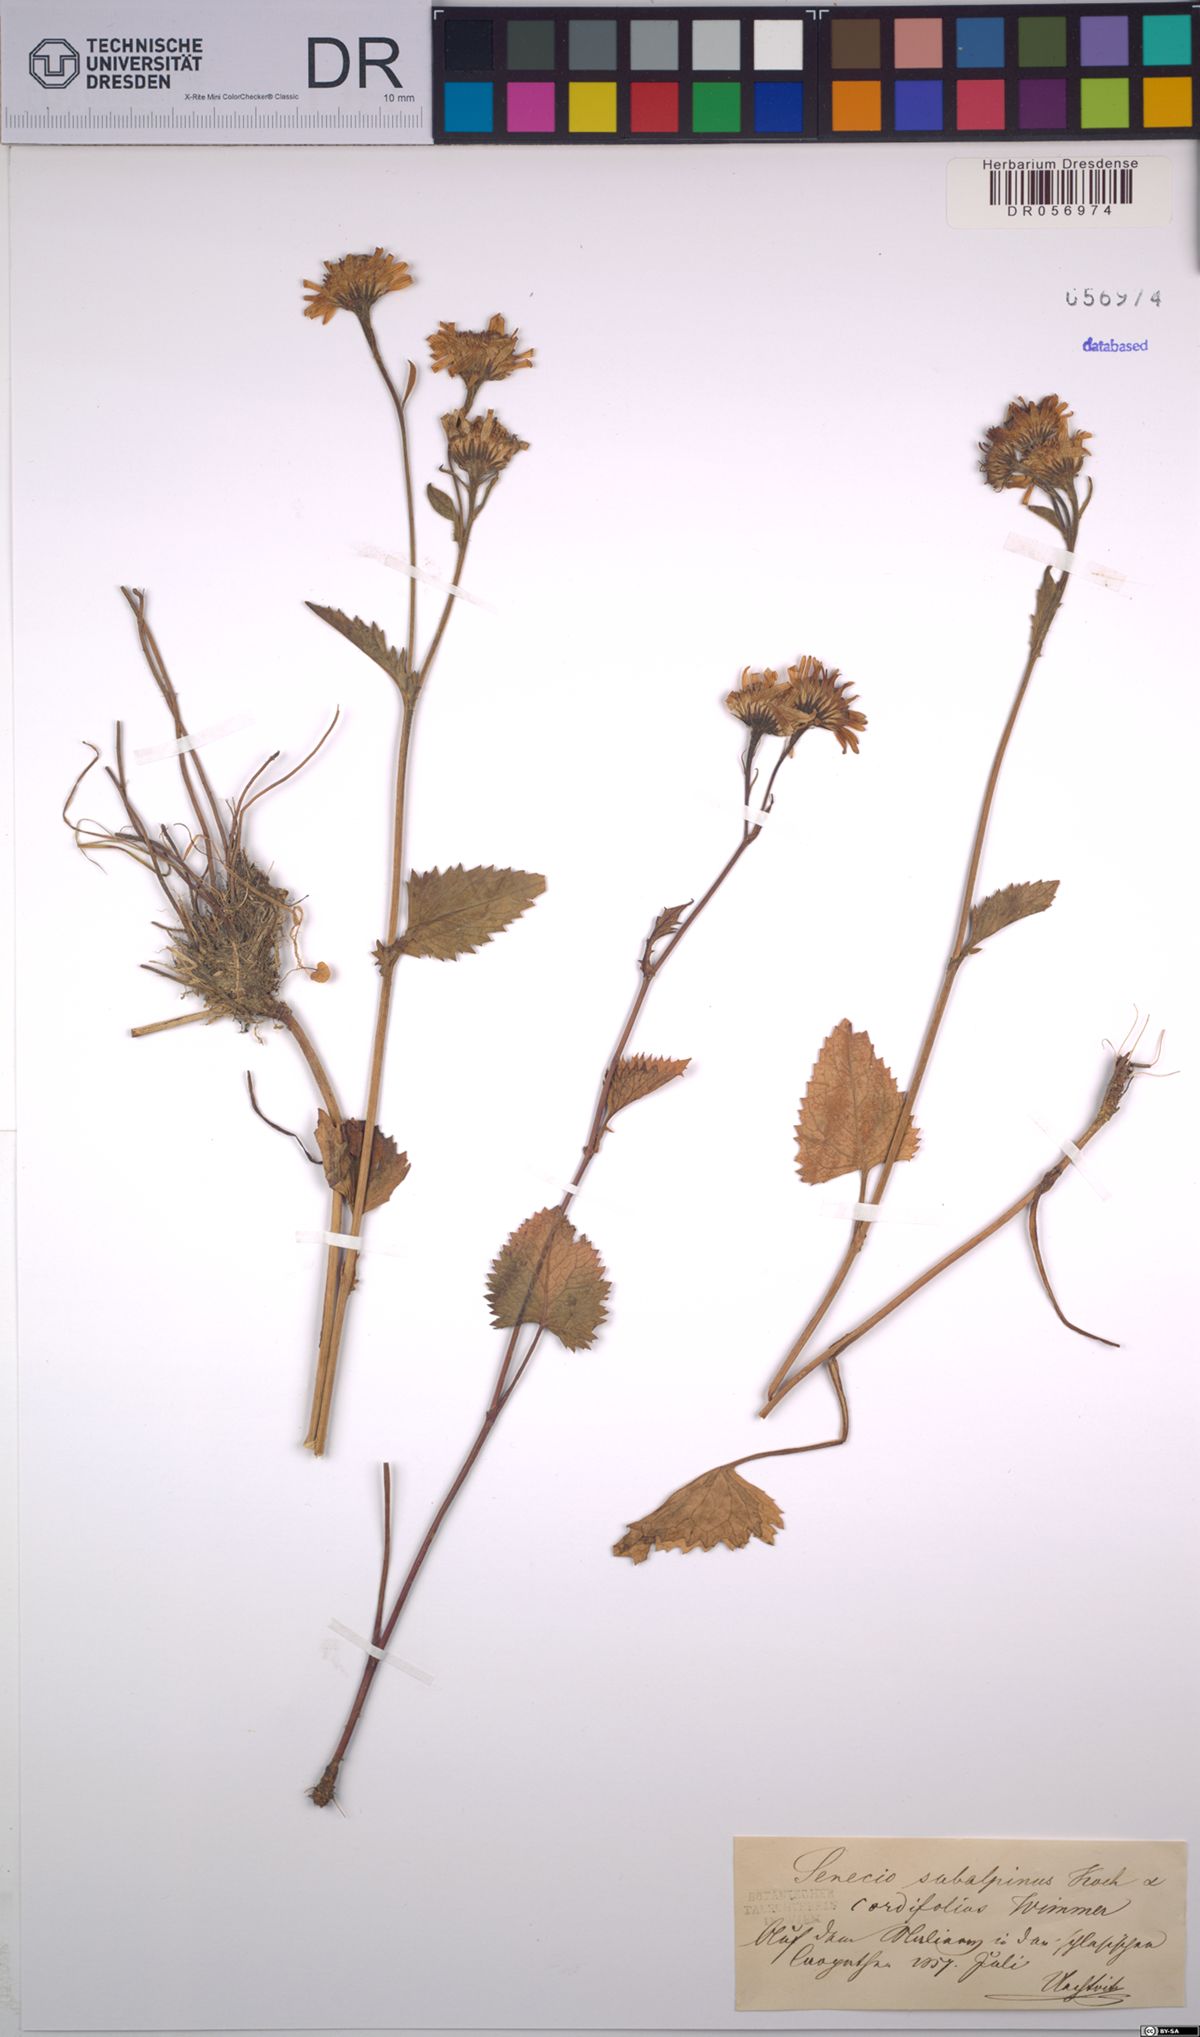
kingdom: Plantae
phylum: Tracheophyta
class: Magnoliopsida
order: Asterales
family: Asteraceae
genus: Jacobaea
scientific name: Jacobaea subalpina
